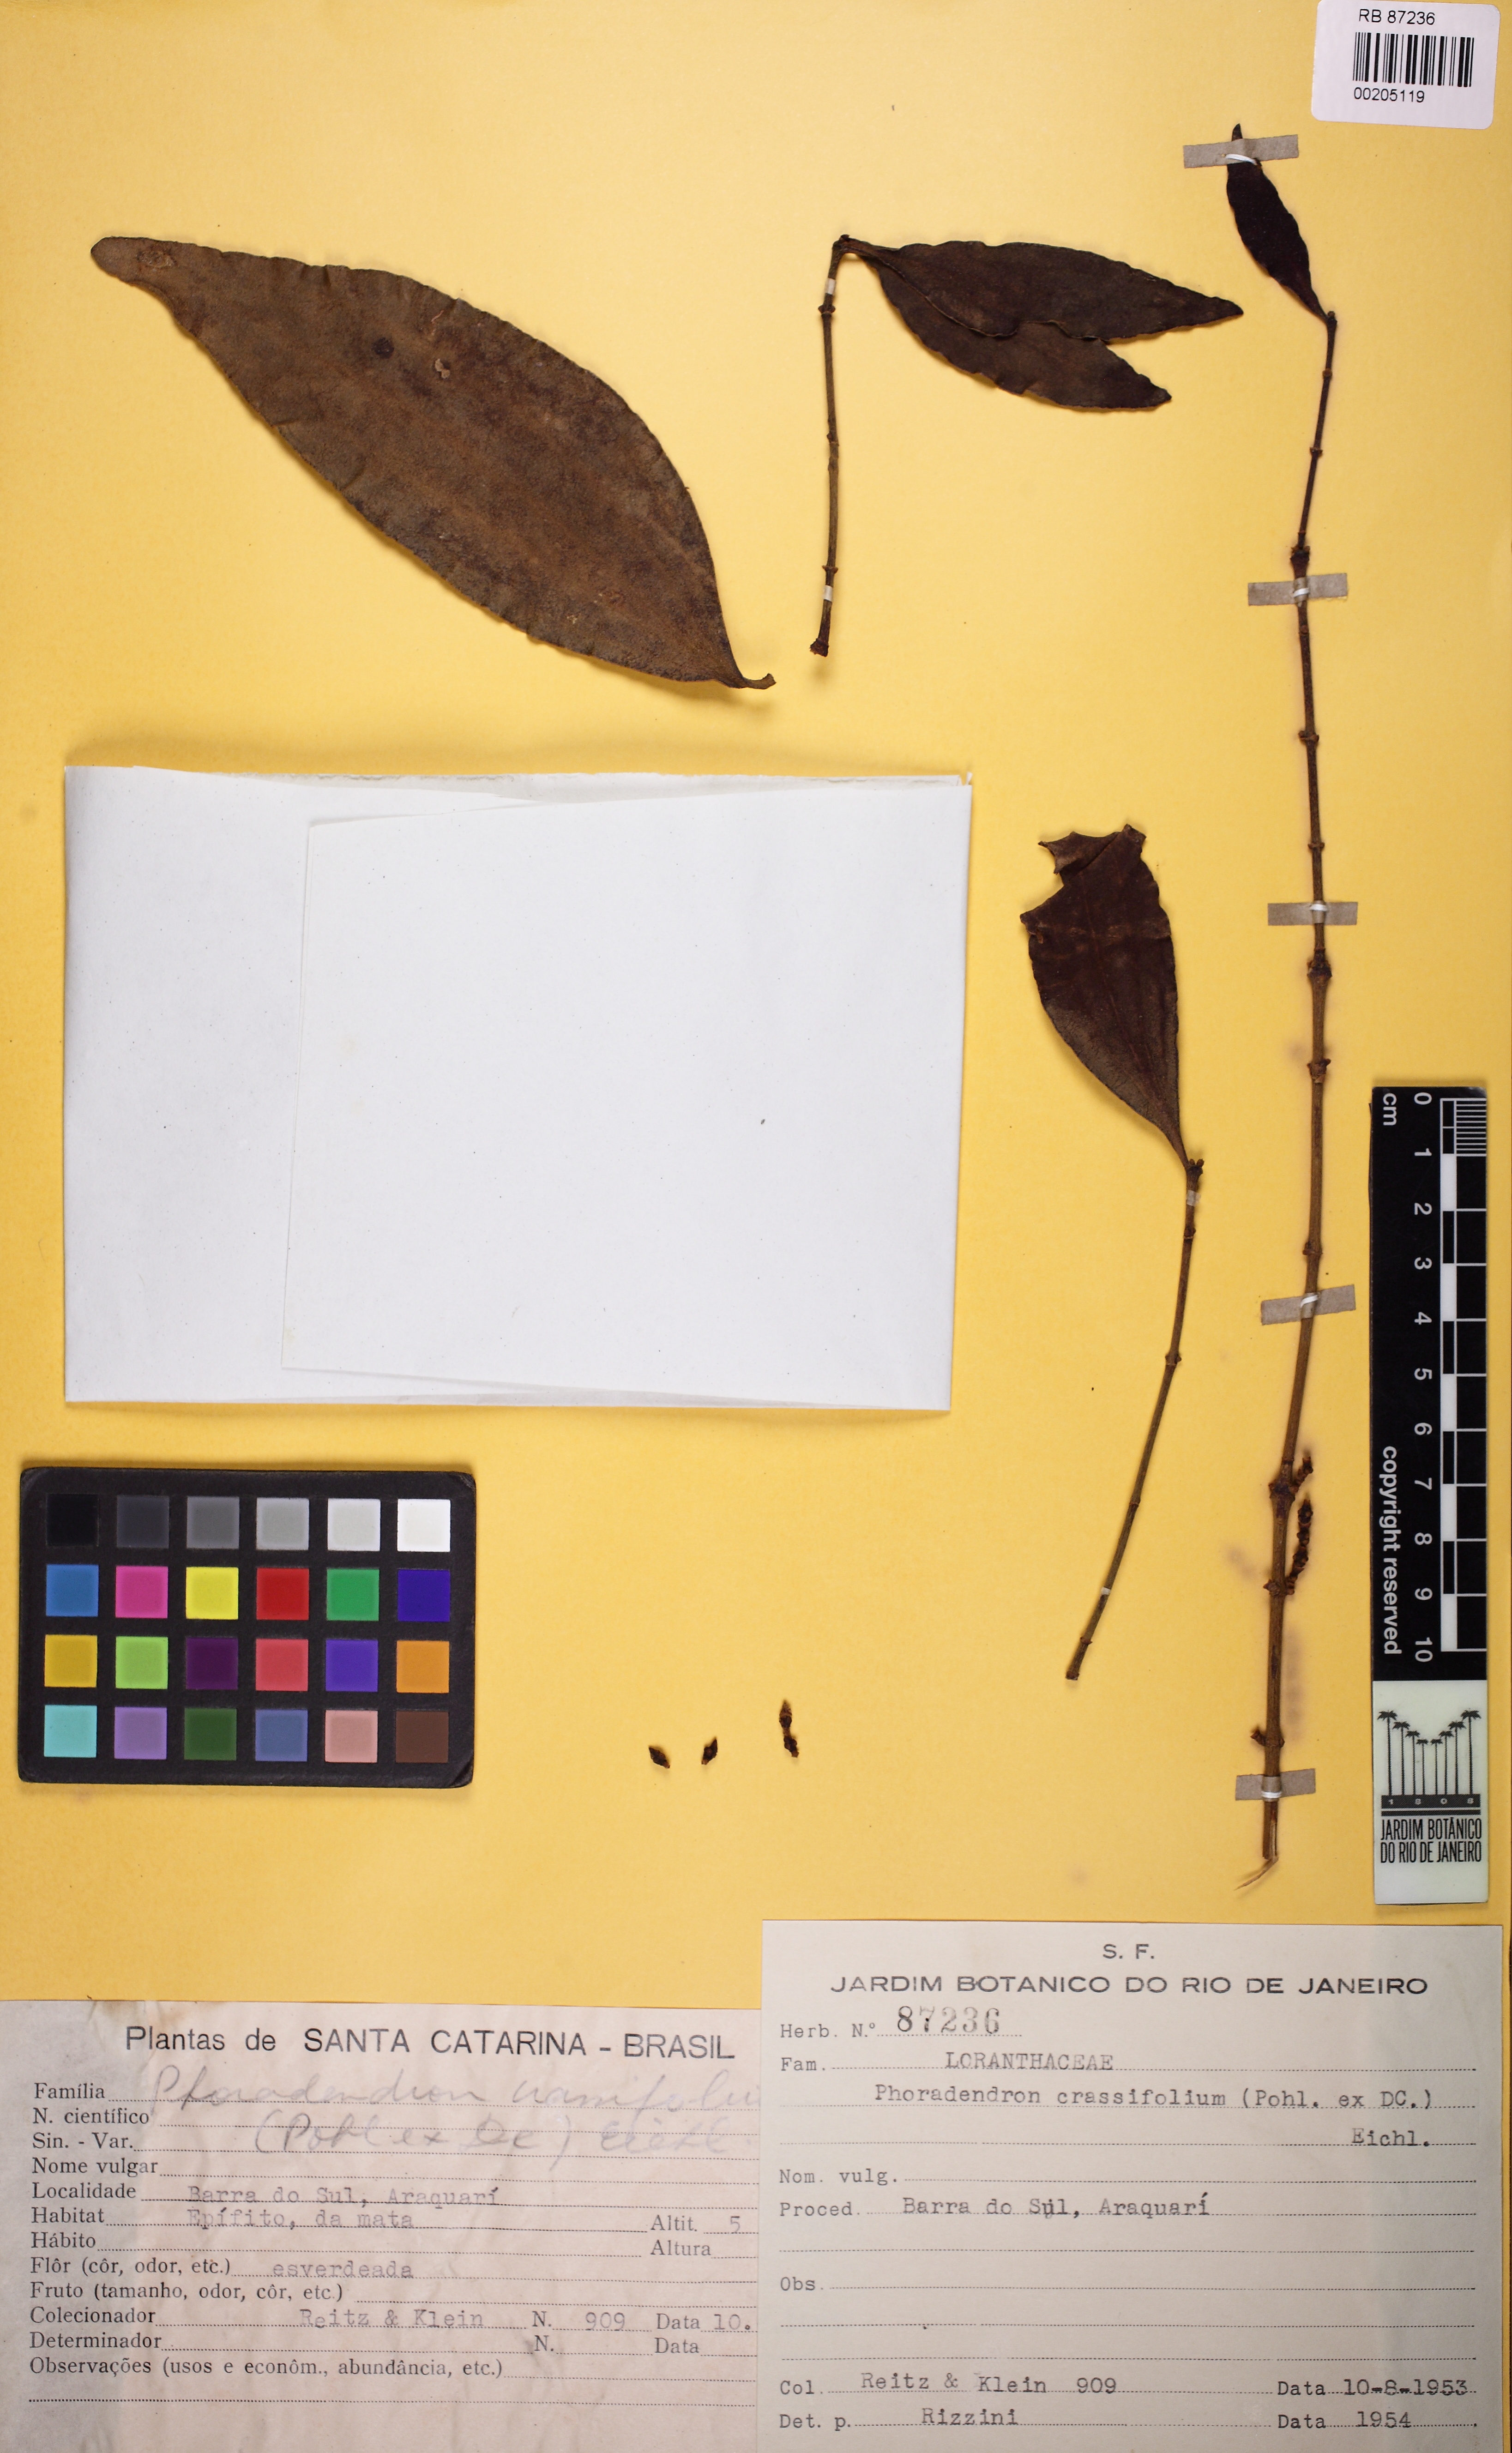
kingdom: Plantae
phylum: Tracheophyta
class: Magnoliopsida
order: Santalales
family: Viscaceae
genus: Phoradendron
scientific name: Phoradendron crassifolium
